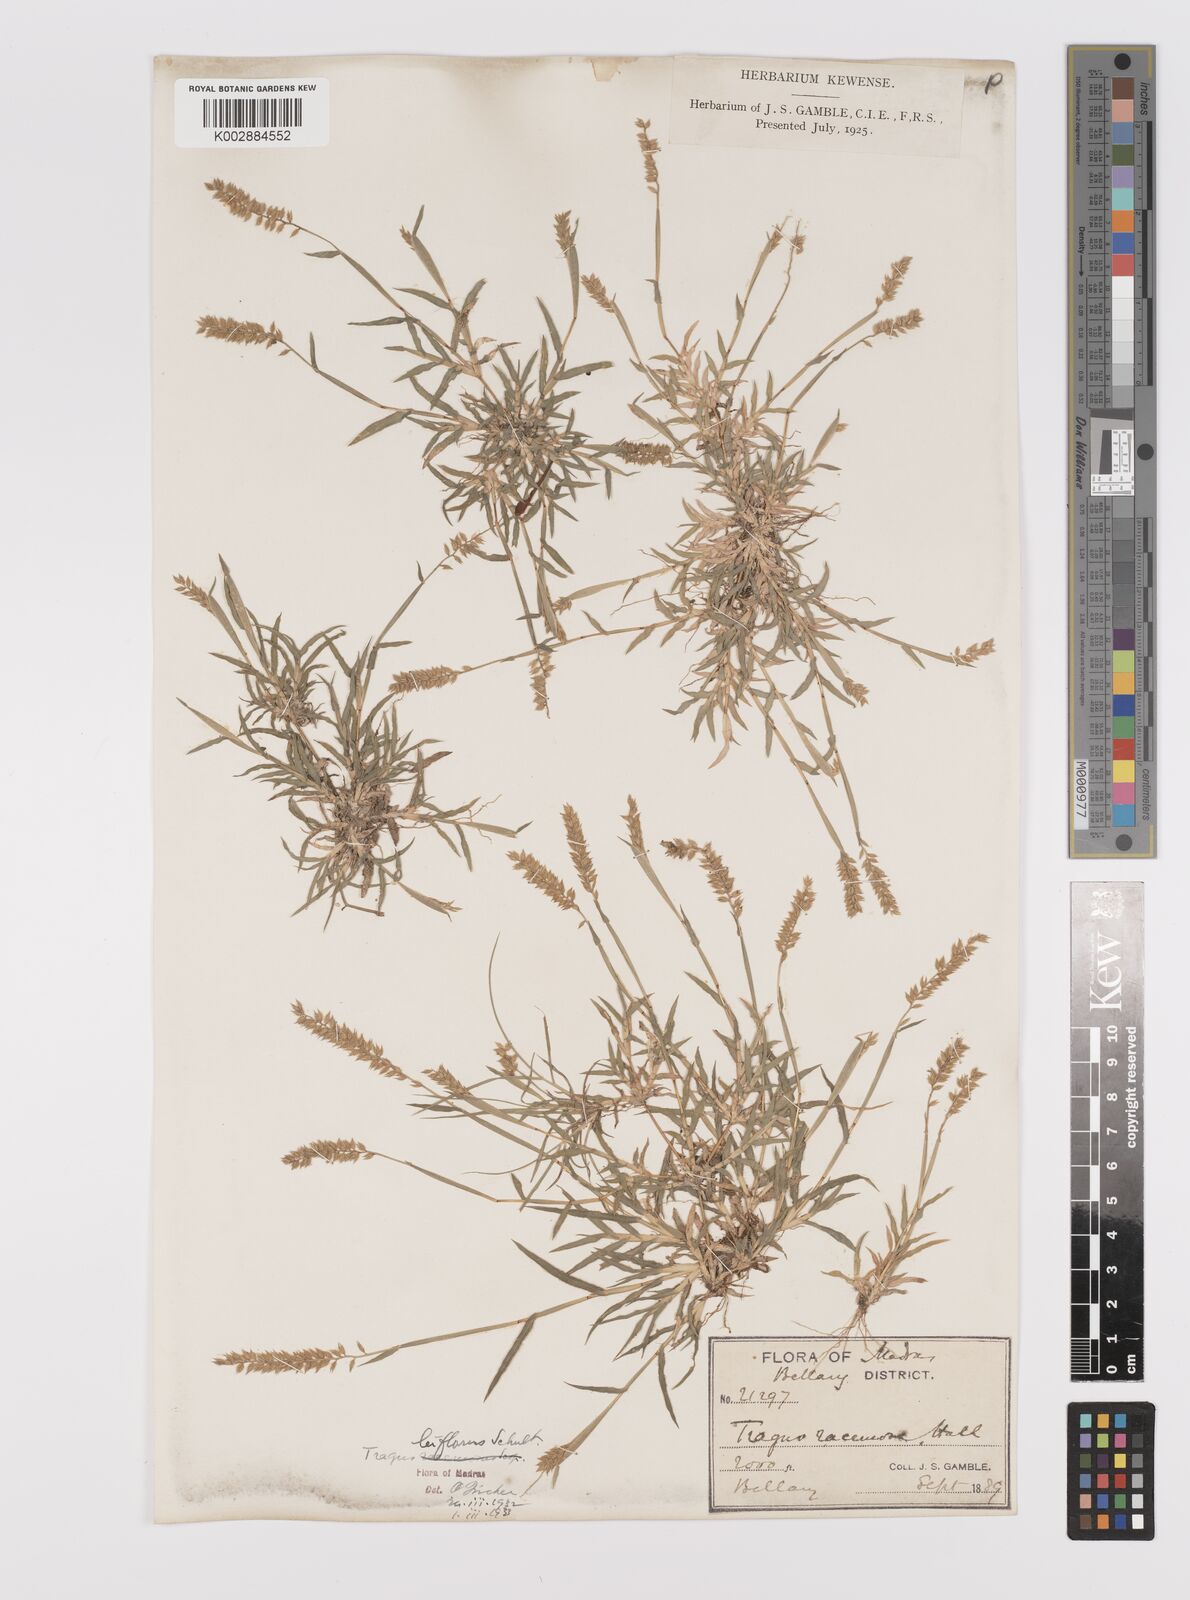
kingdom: Plantae
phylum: Tracheophyta
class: Liliopsida
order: Poales
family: Poaceae
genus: Tragus
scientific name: Tragus mongolorum
